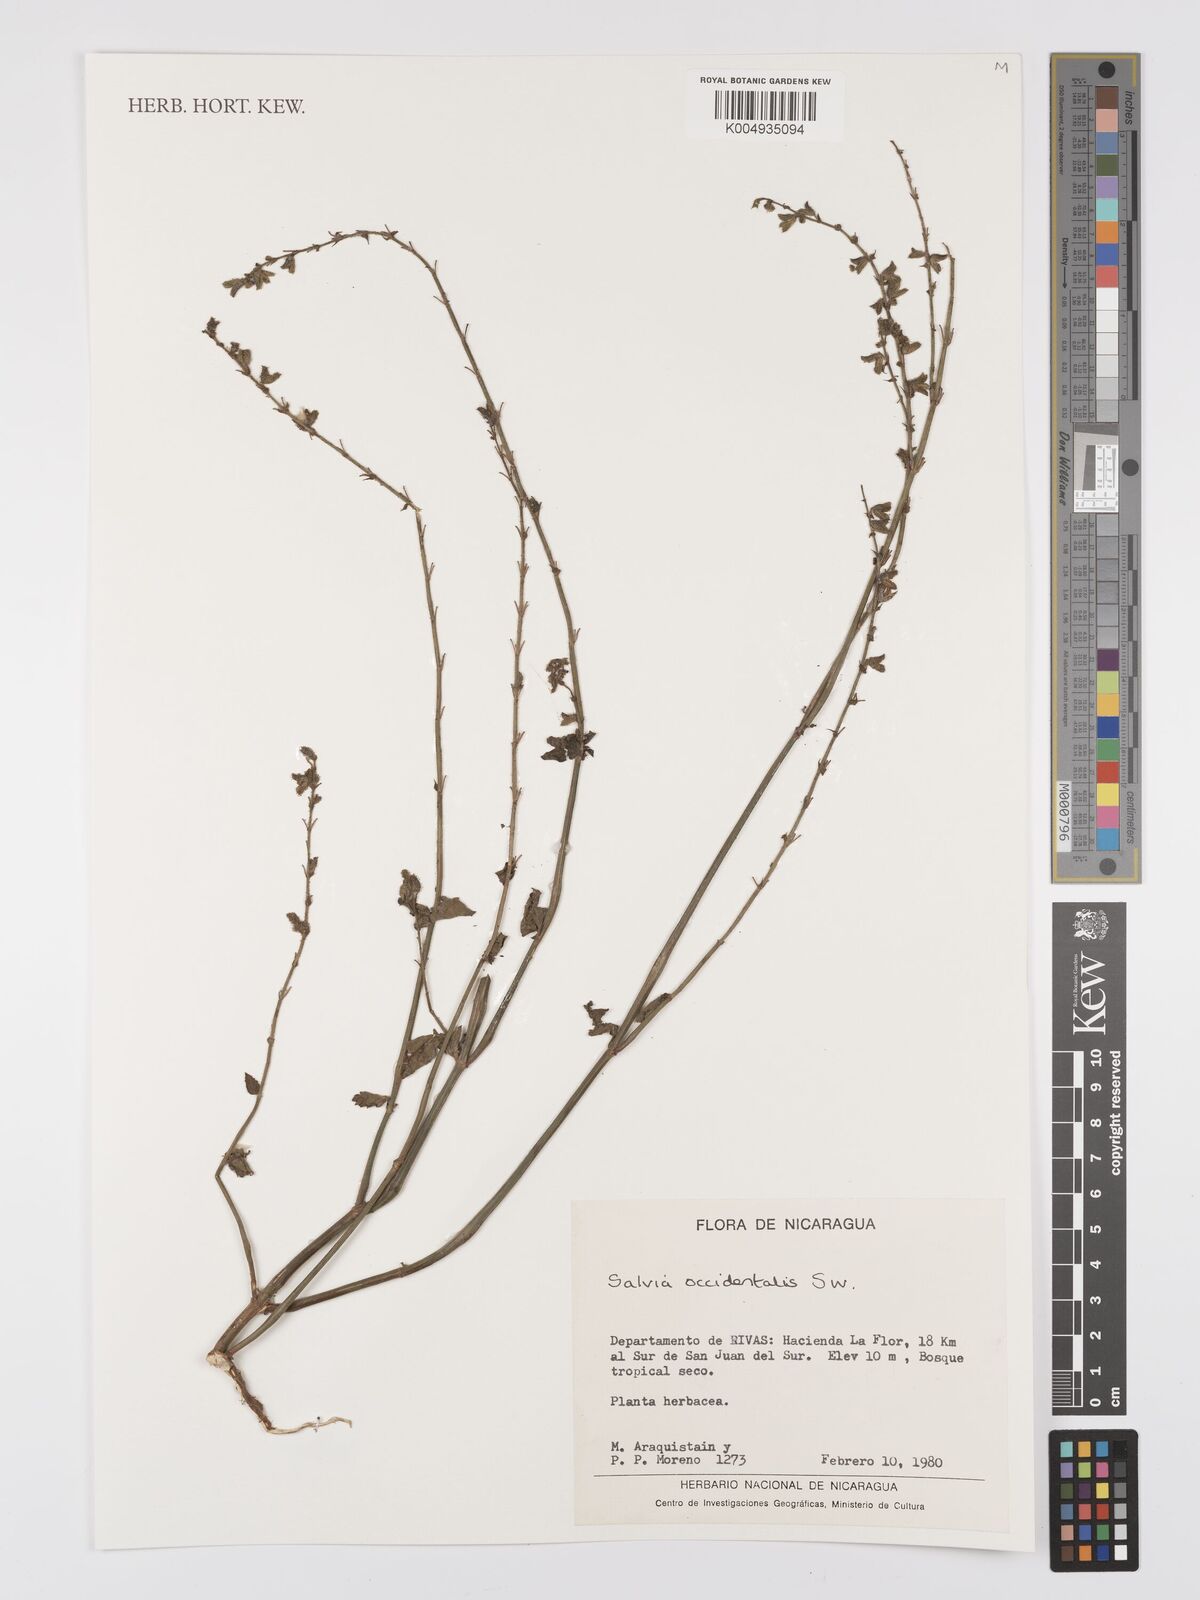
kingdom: Plantae
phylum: Tracheophyta
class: Magnoliopsida
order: Lamiales
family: Lamiaceae
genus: Salvia
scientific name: Salvia occidentalis
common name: West indian sage
